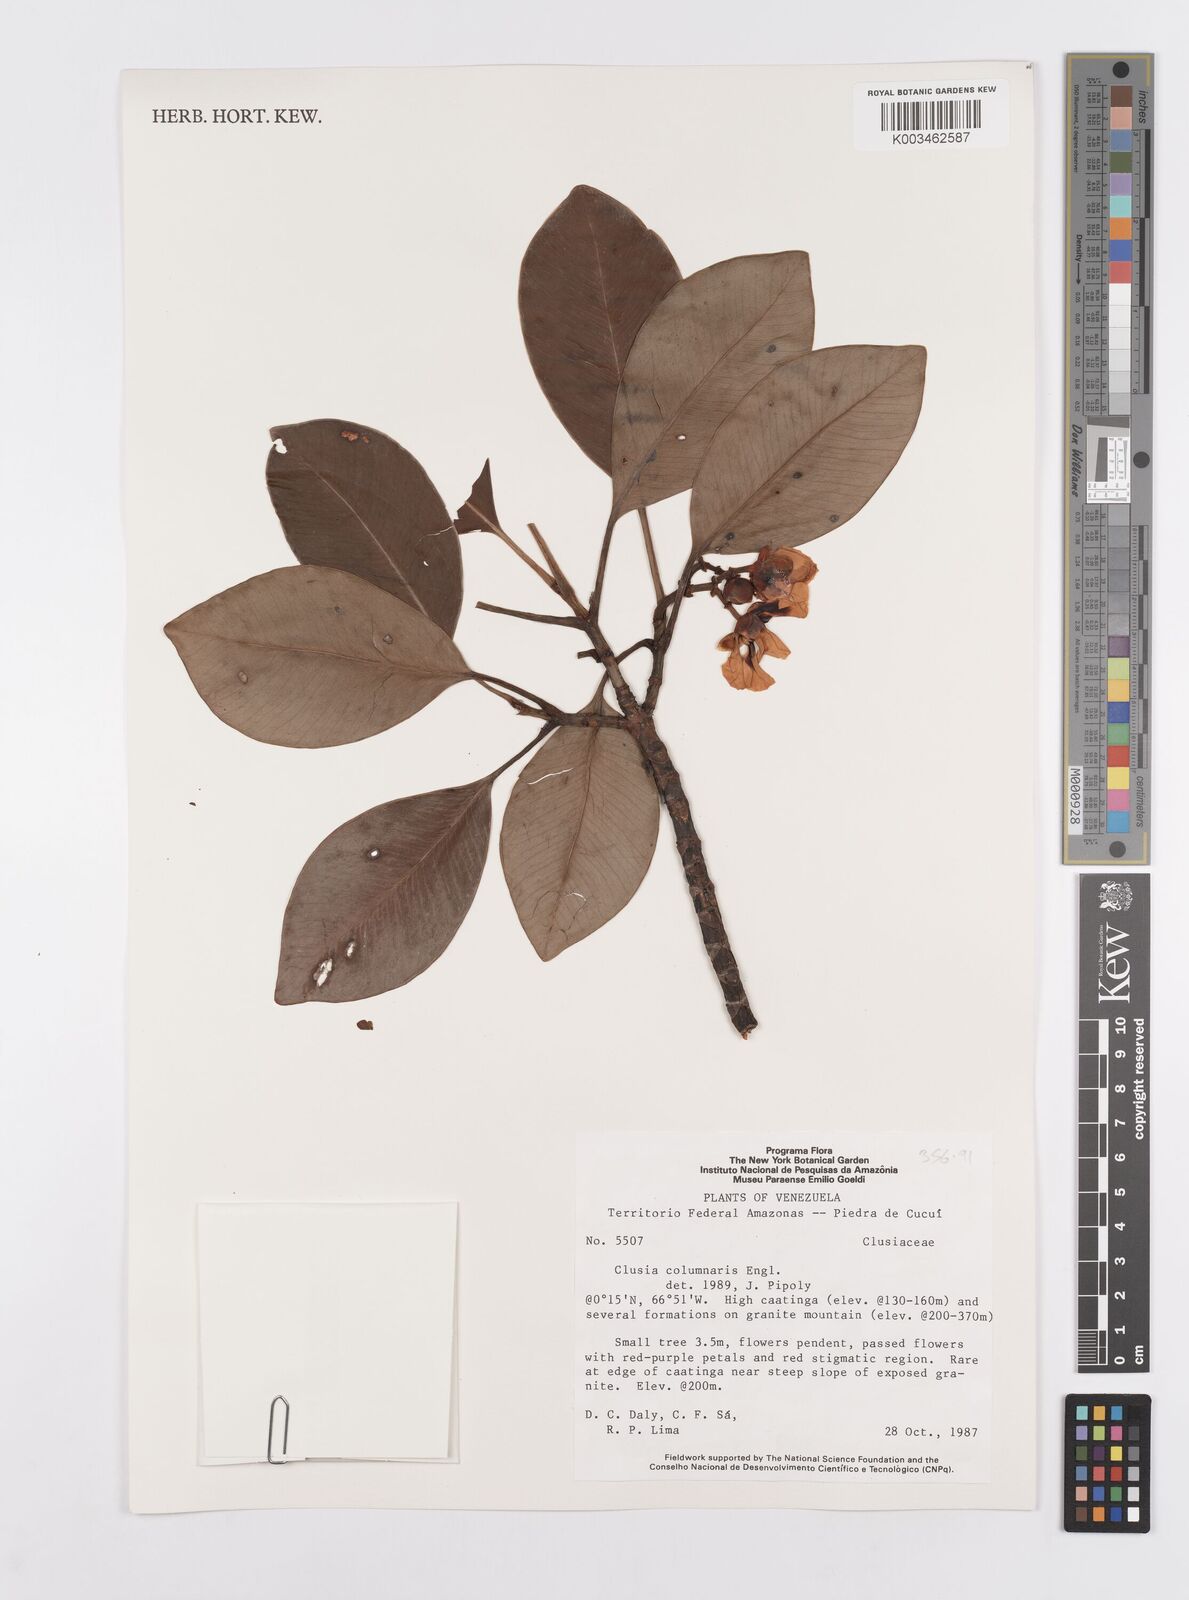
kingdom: Plantae
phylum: Tracheophyta
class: Magnoliopsida
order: Malpighiales
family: Clusiaceae
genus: Clusia
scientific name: Clusia columnaris
